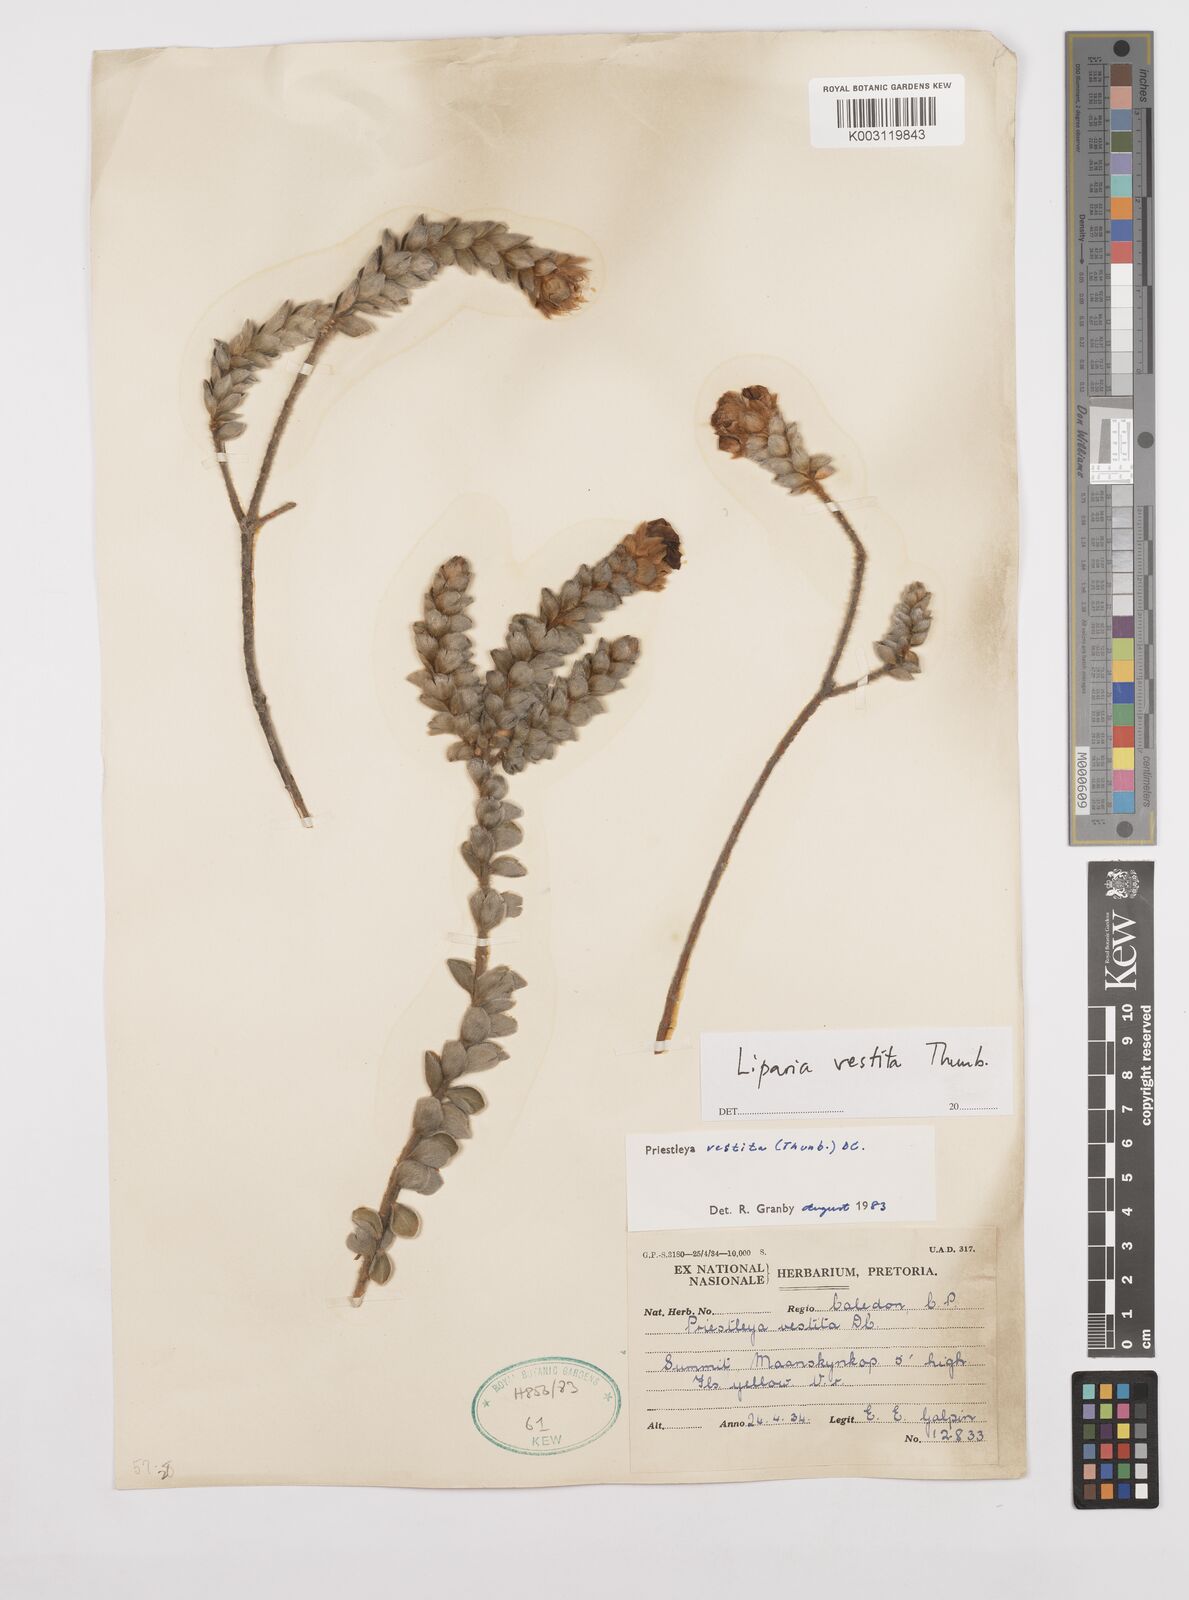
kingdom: Plantae
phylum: Tracheophyta
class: Magnoliopsida
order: Fabales
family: Fabaceae
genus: Liparia
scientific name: Liparia vestita
